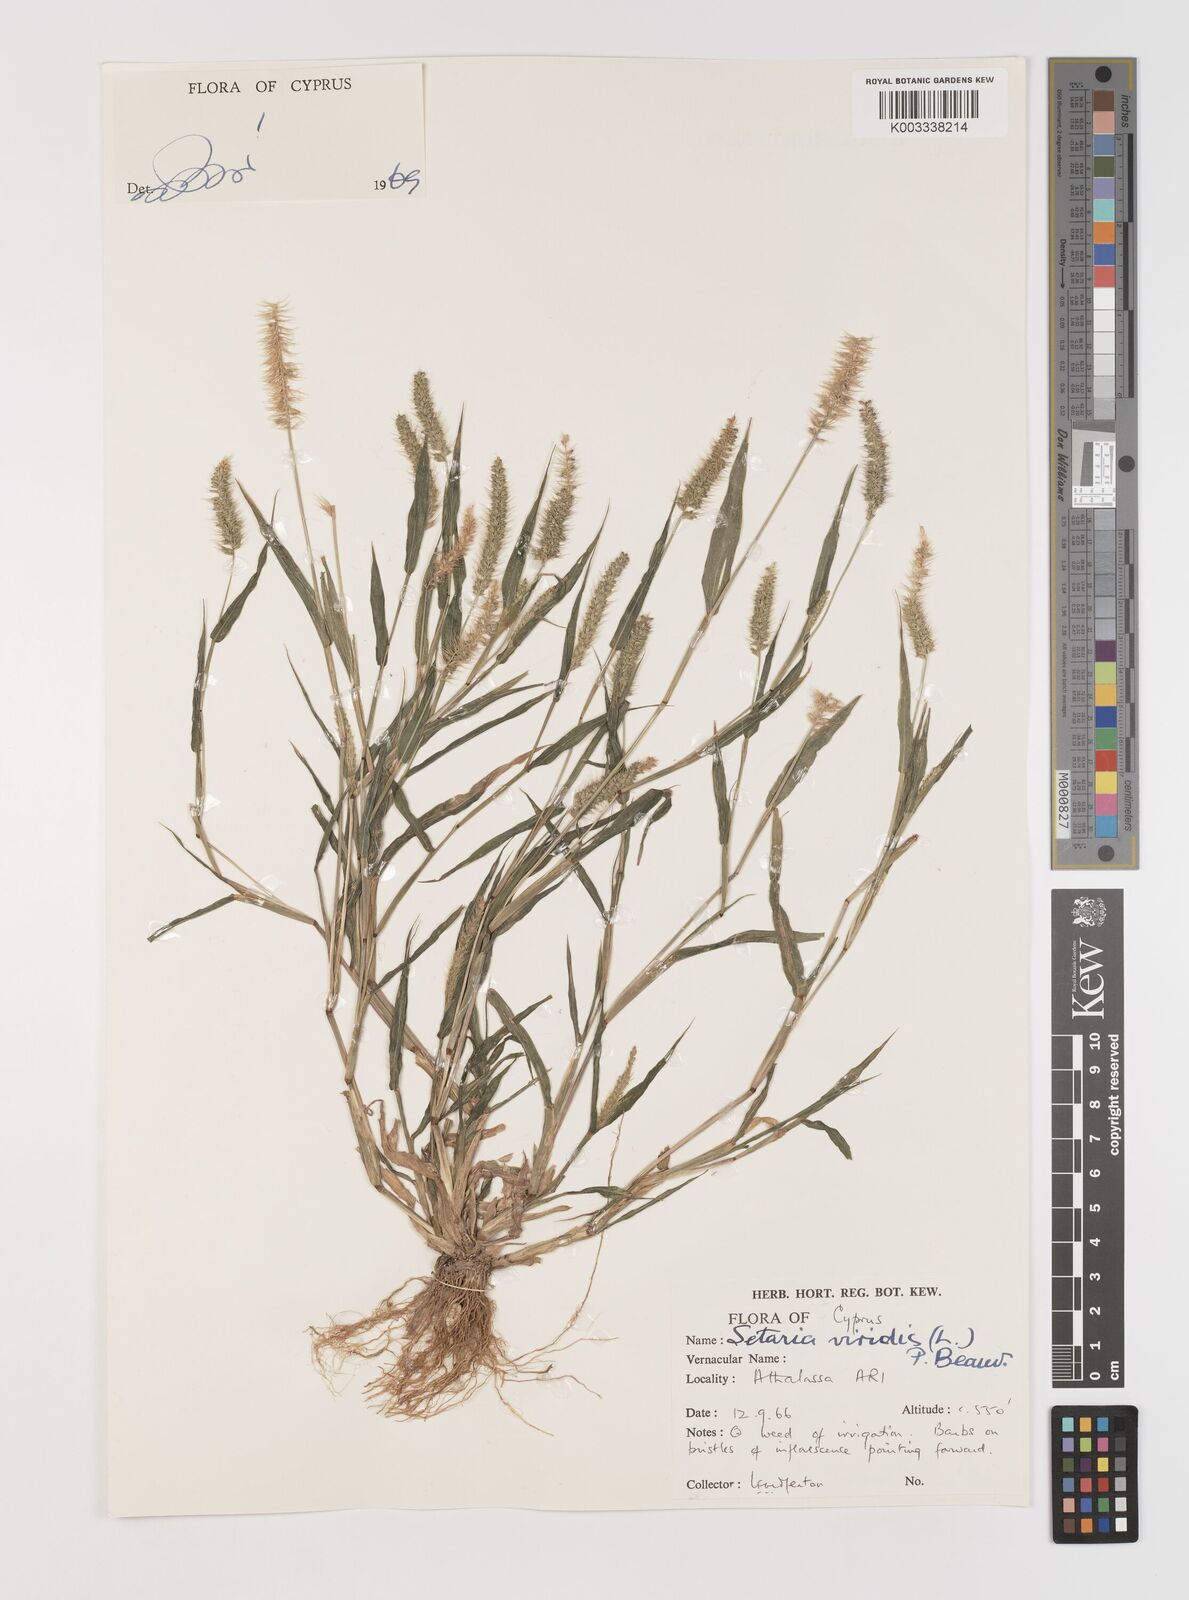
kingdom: Plantae
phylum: Tracheophyta
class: Liliopsida
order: Poales
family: Poaceae
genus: Setaria
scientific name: Setaria verticillata
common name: Hooked bristlegrass
